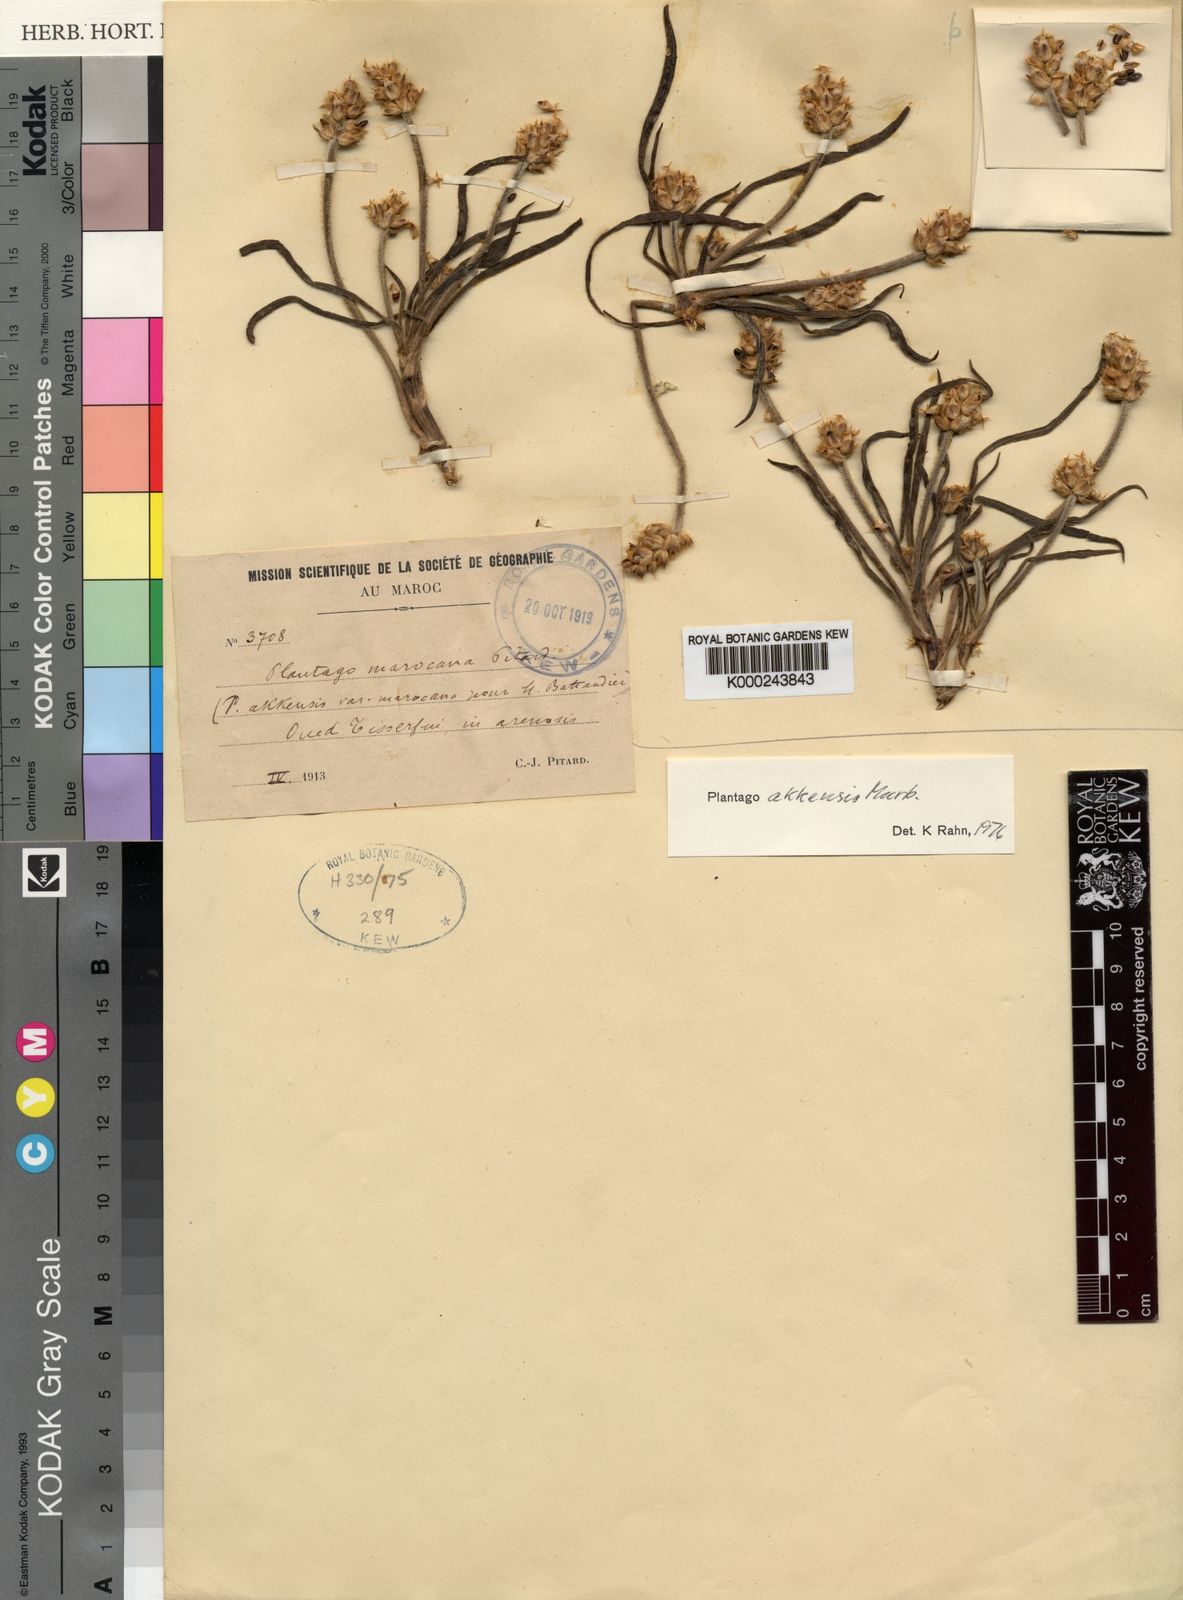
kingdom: Plantae
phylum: Tracheophyta
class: Magnoliopsida
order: Lamiales
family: Plantaginaceae
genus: Plantago
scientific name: Plantago akkensis
